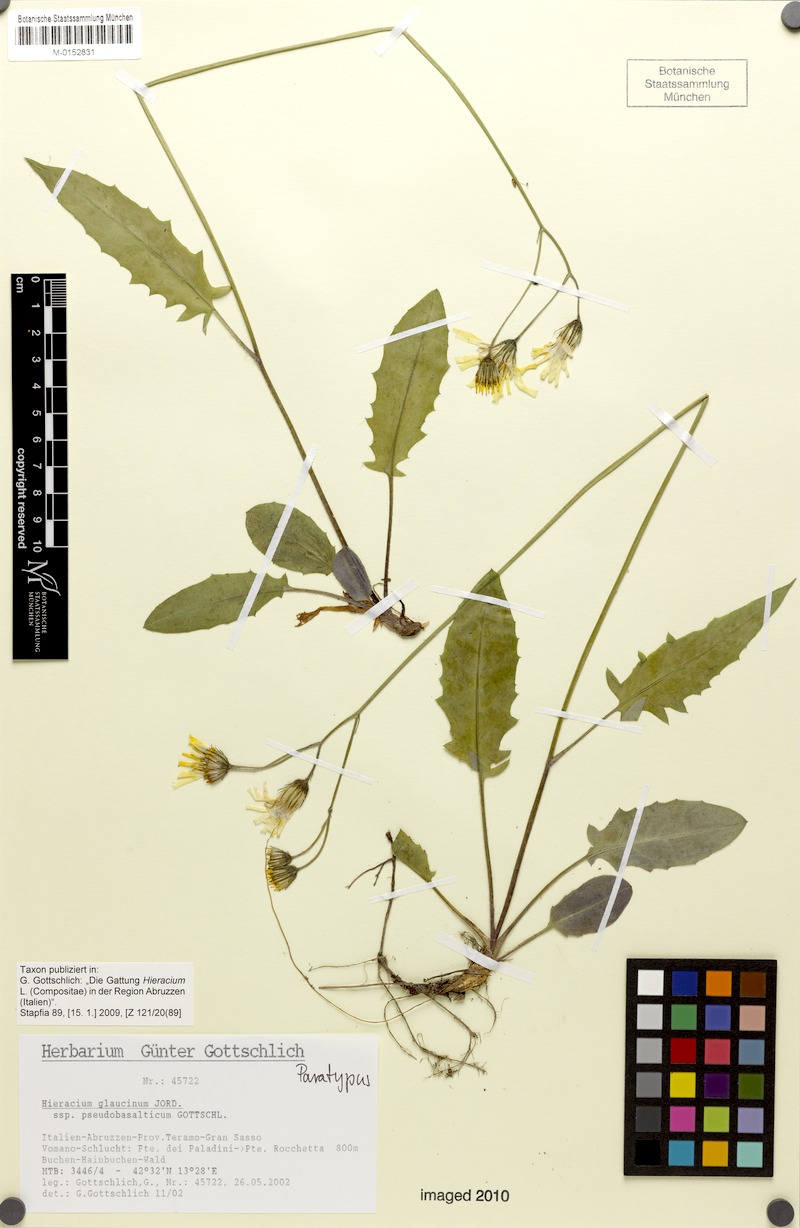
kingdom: Plantae
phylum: Tracheophyta
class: Magnoliopsida
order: Asterales
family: Asteraceae
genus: Hieracium
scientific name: Hieracium glaucinum
